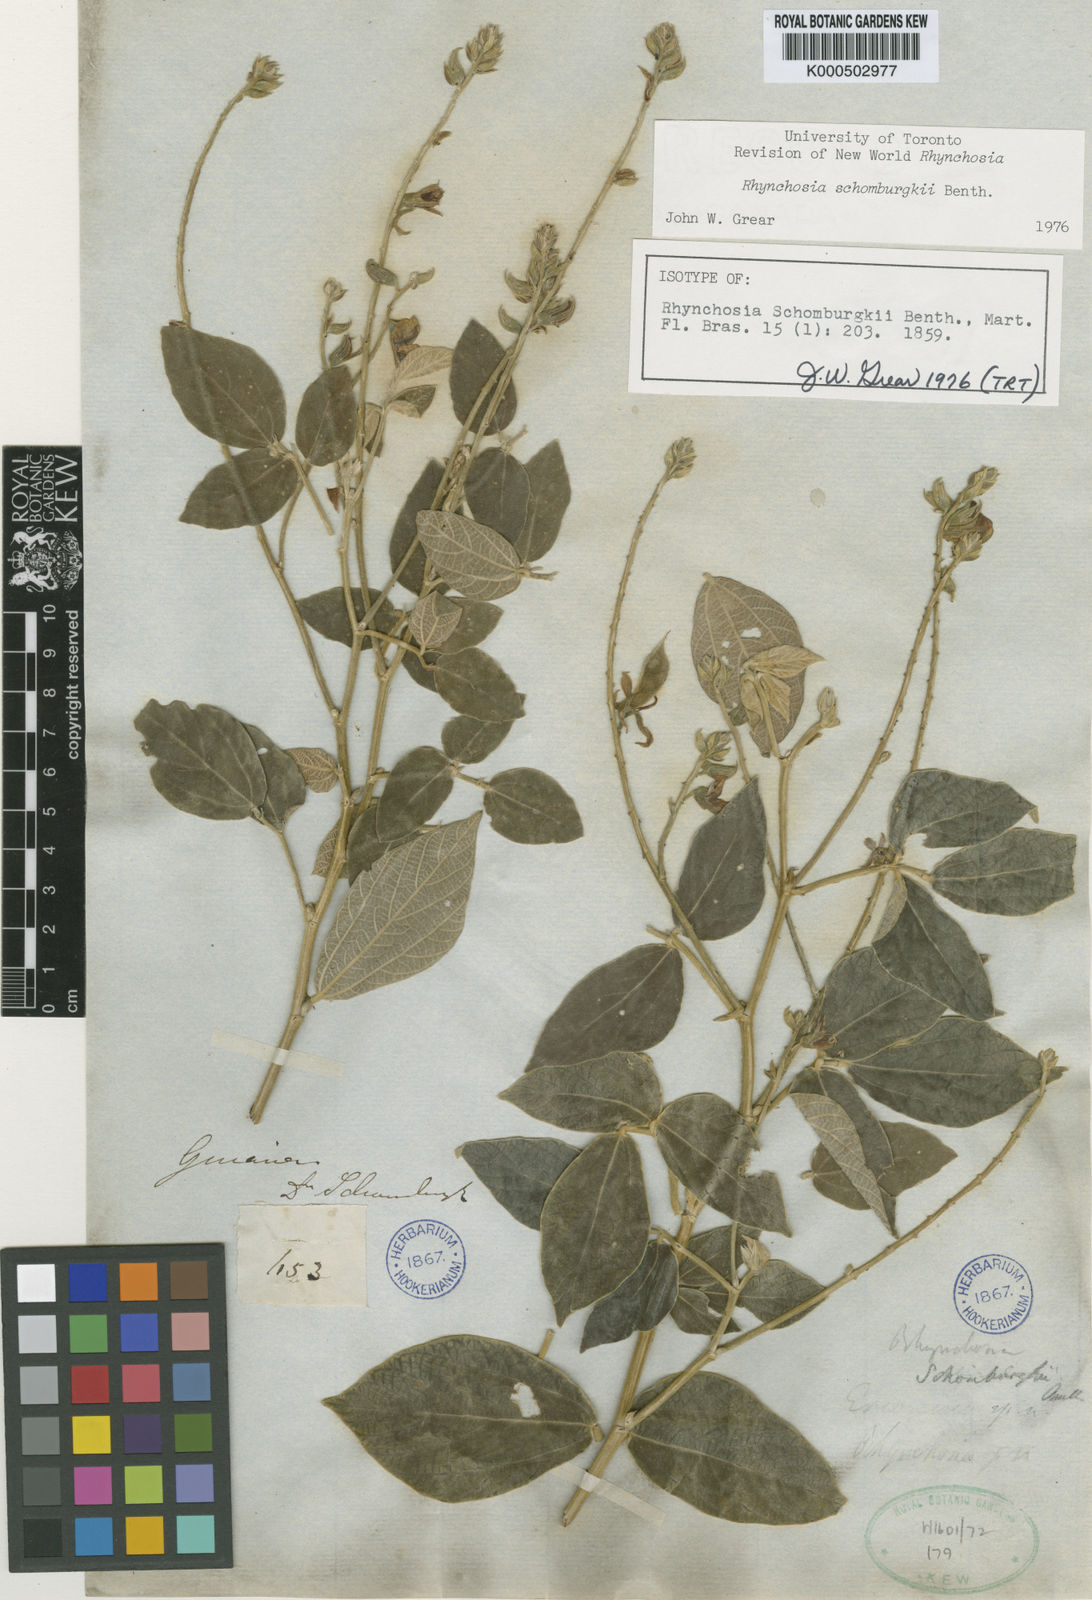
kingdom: Plantae
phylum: Tracheophyta
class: Magnoliopsida
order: Fabales
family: Fabaceae
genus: Rhynchosia
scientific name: Rhynchosia schomburgkii
